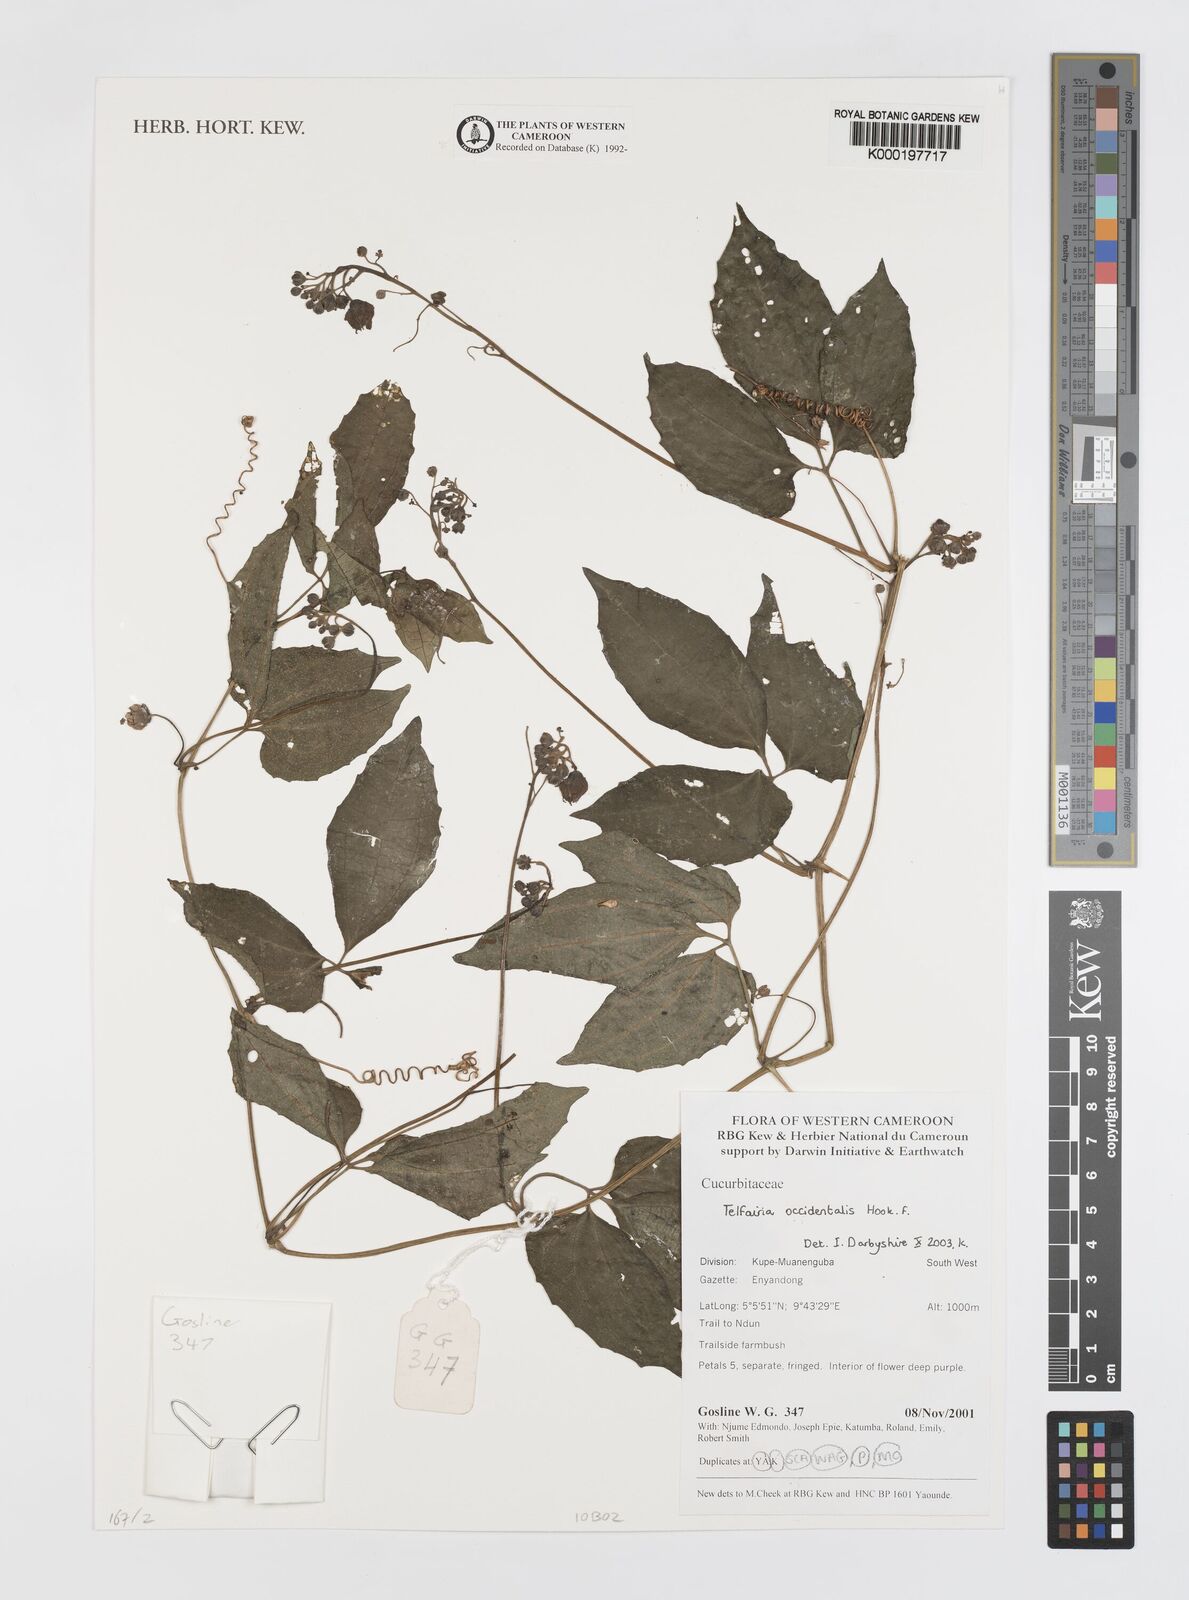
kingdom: Plantae
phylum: Tracheophyta
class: Magnoliopsida
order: Cucurbitales
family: Cucurbitaceae
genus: Telfairia
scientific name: Telfairia occidentalis
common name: Oysternut
